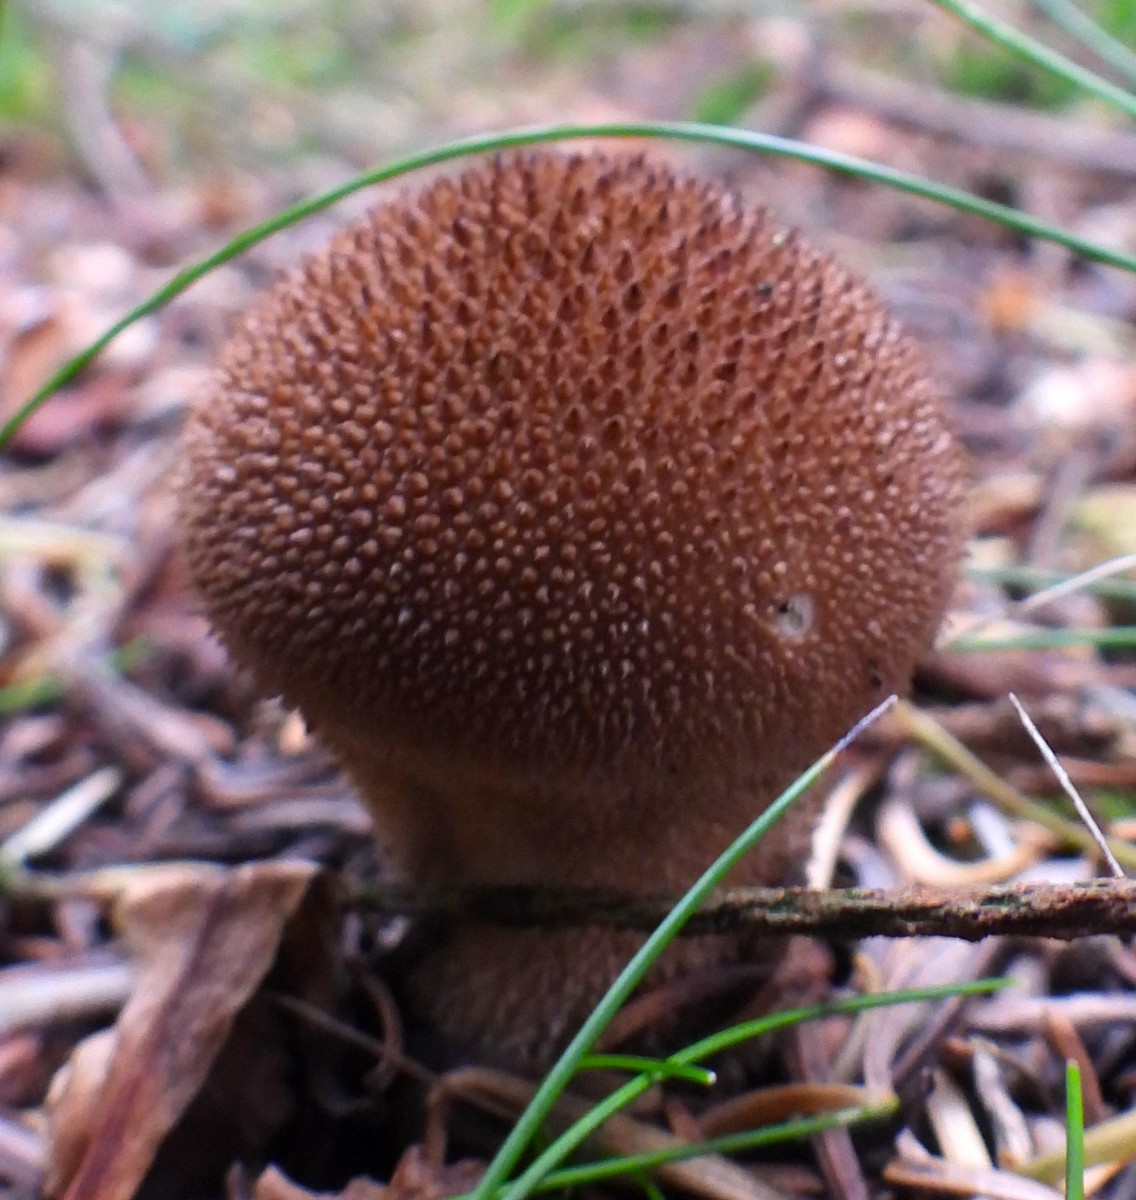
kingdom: Fungi
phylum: Basidiomycota
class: Agaricomycetes
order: Agaricales
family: Lycoperdaceae
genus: Lycoperdon
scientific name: Lycoperdon nigrescens
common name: sortagtig støvbold
